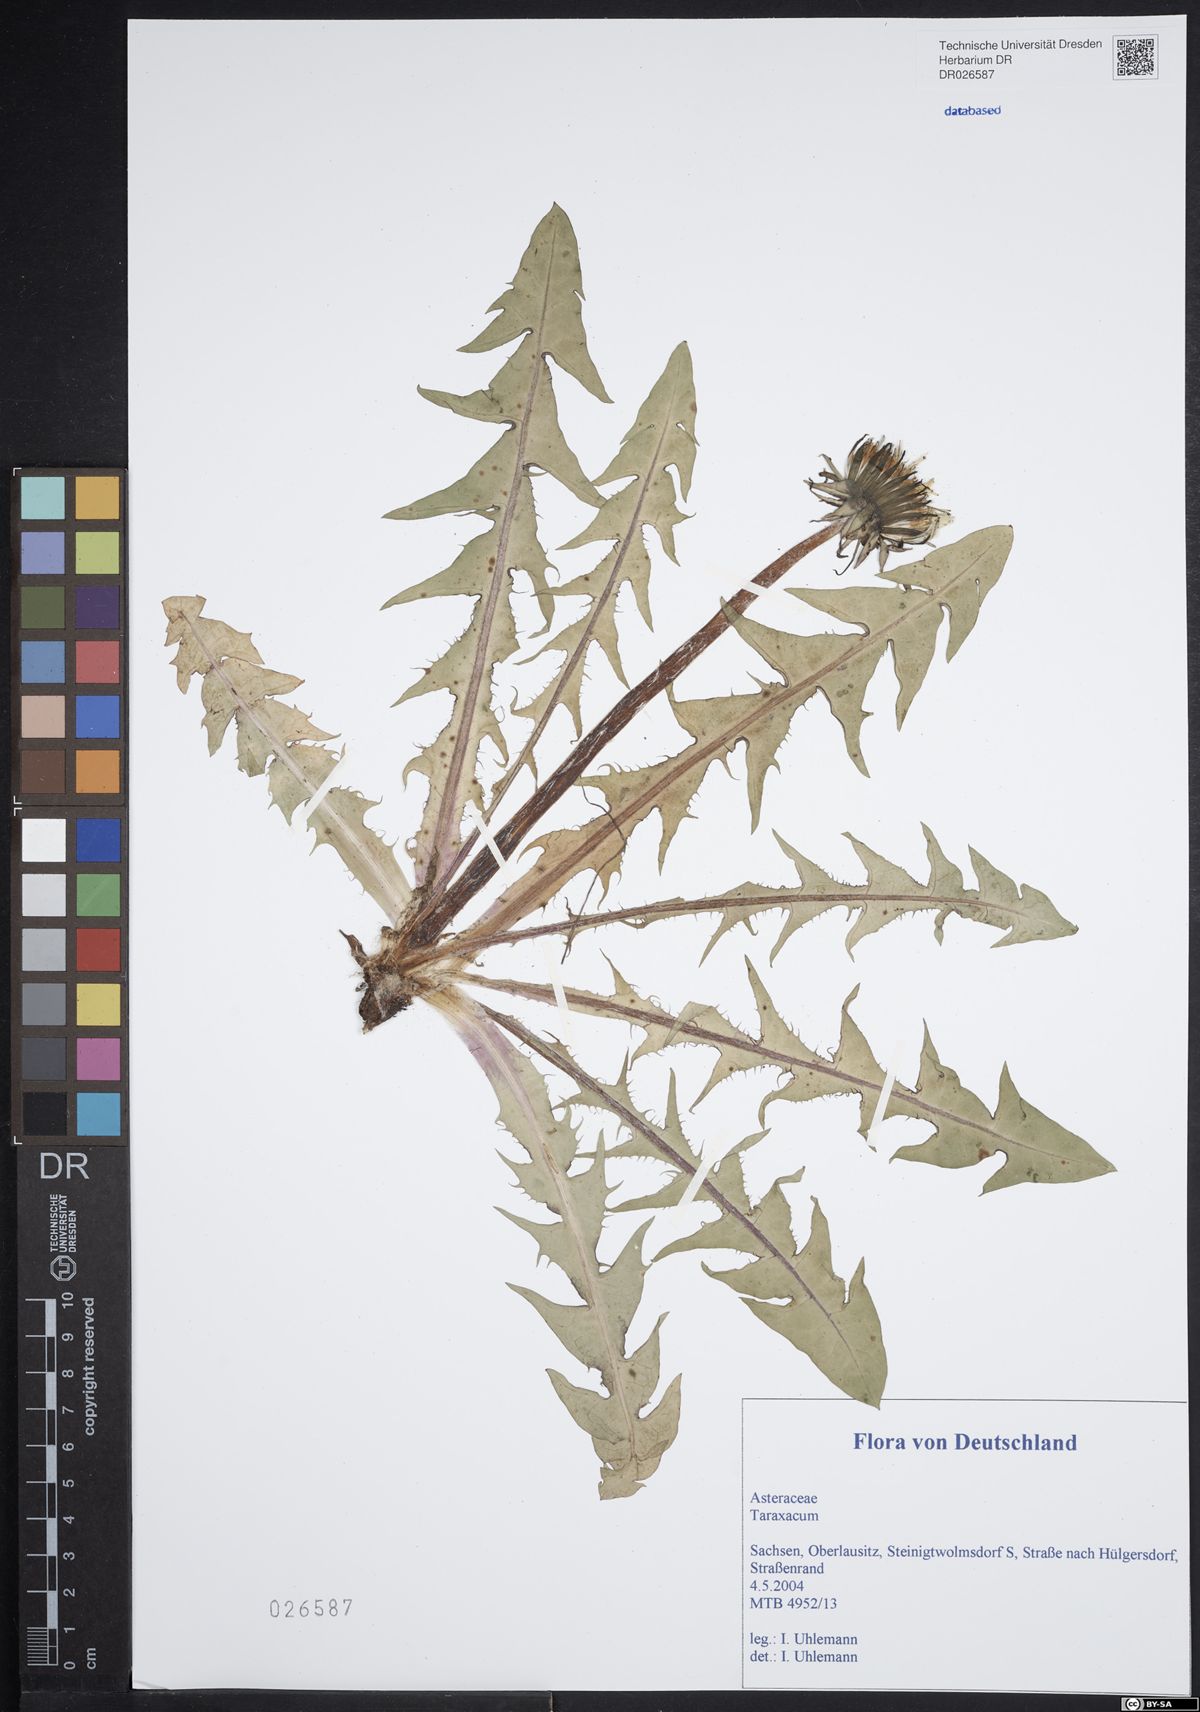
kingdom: Plantae
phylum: Tracheophyta
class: Magnoliopsida
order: Asterales
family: Asteraceae
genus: Taraxacum
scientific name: Taraxacum speciosiflorum
